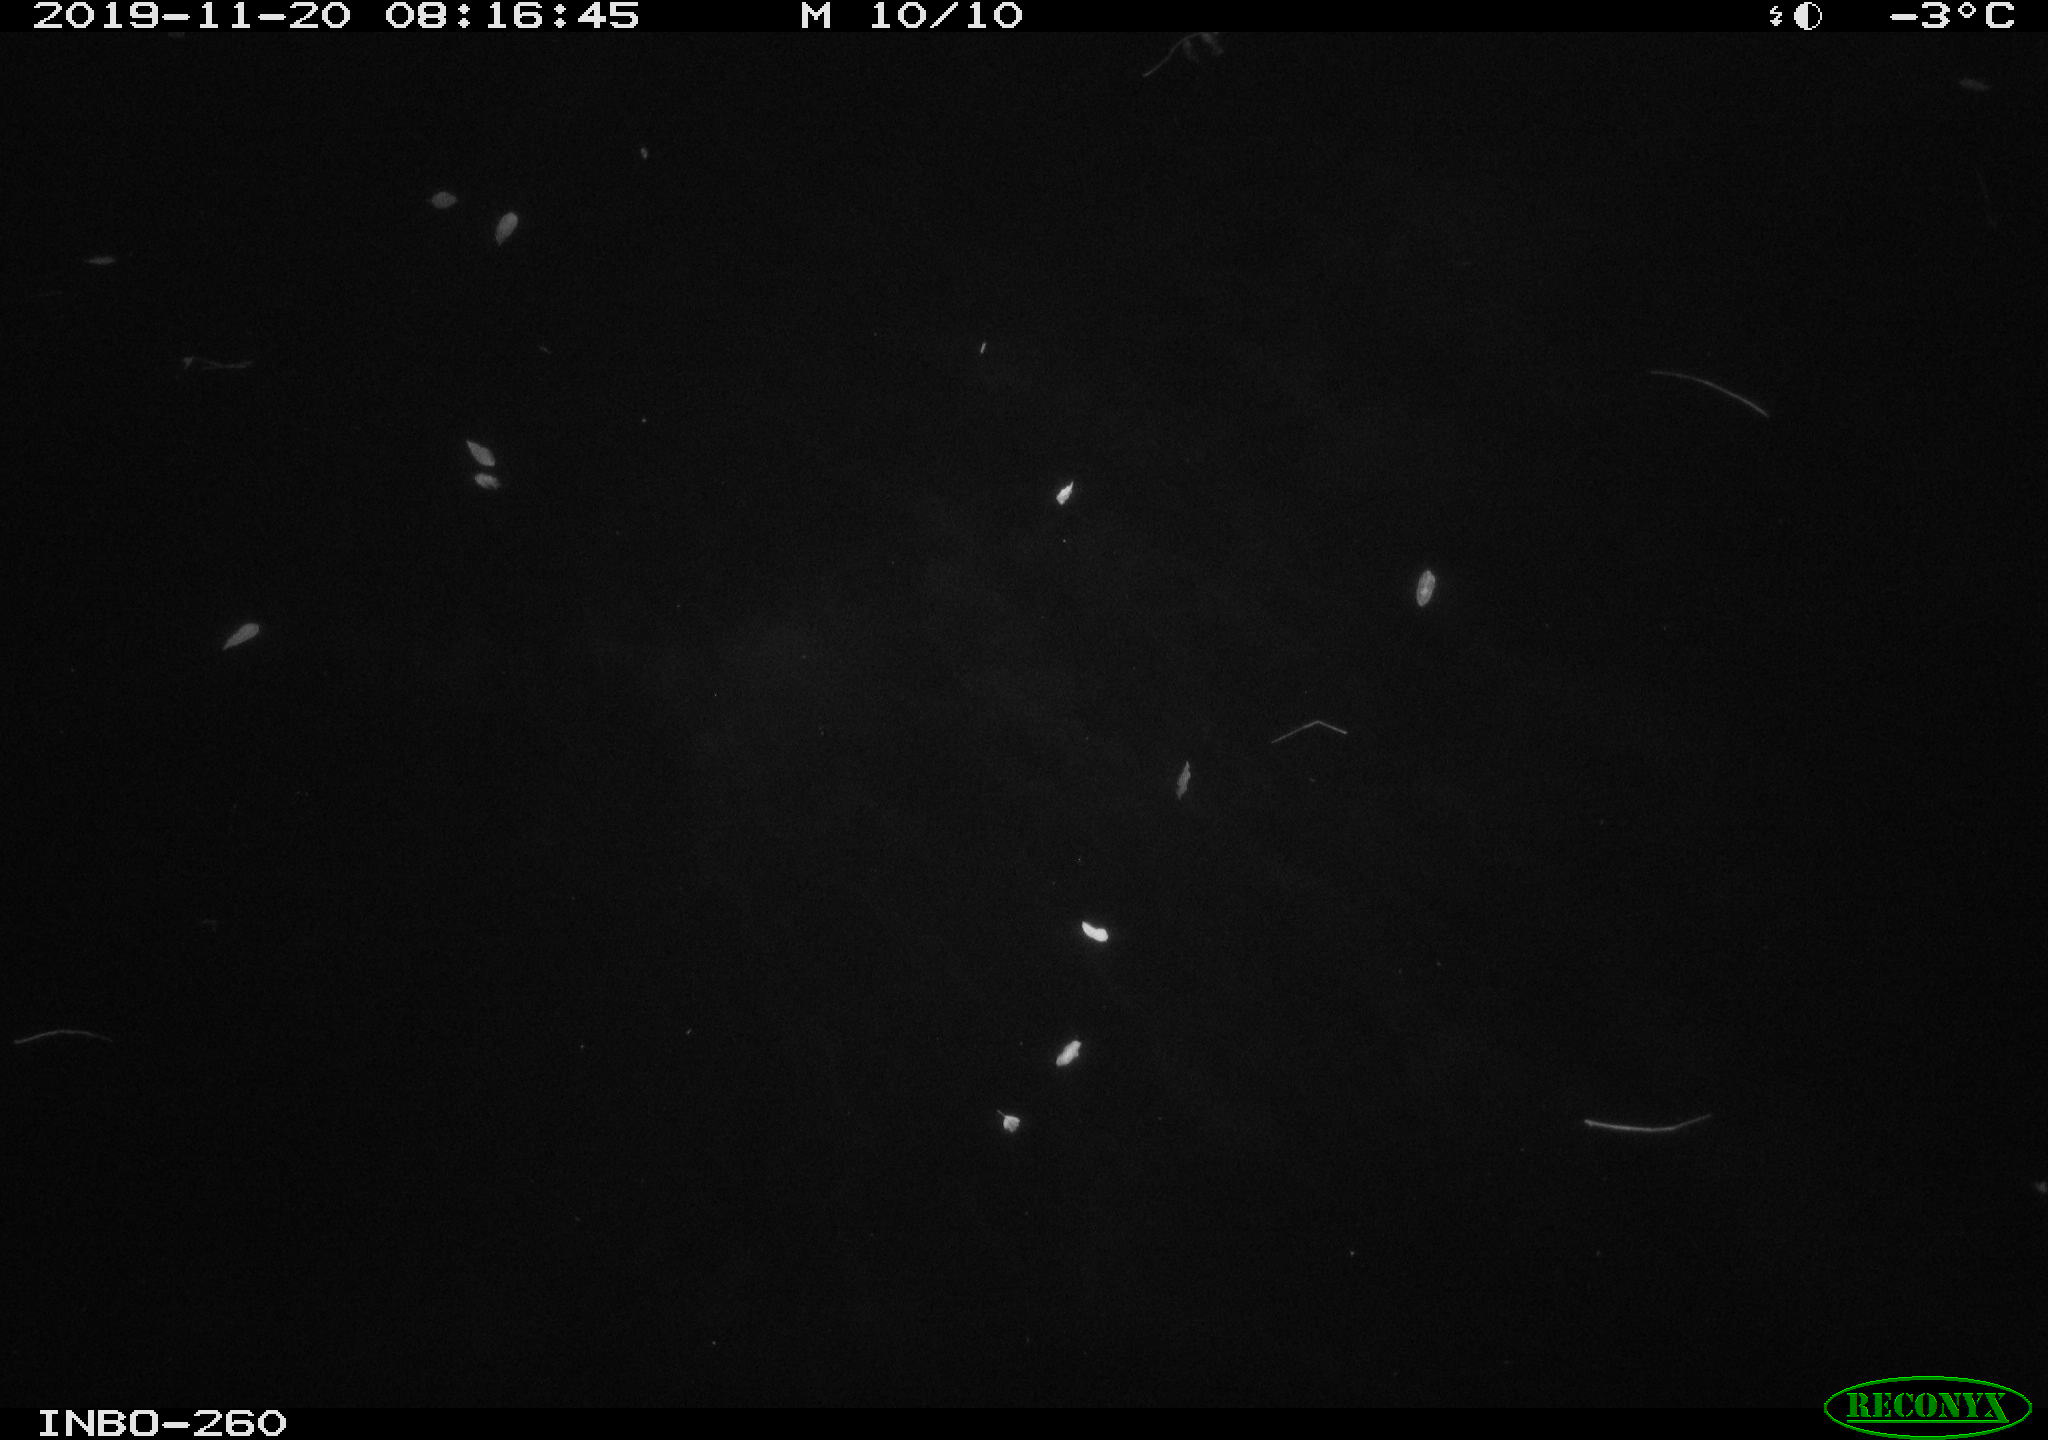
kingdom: Animalia
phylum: Chordata
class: Aves
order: Anseriformes
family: Anatidae
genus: Anas
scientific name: Anas platyrhynchos
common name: Mallard
